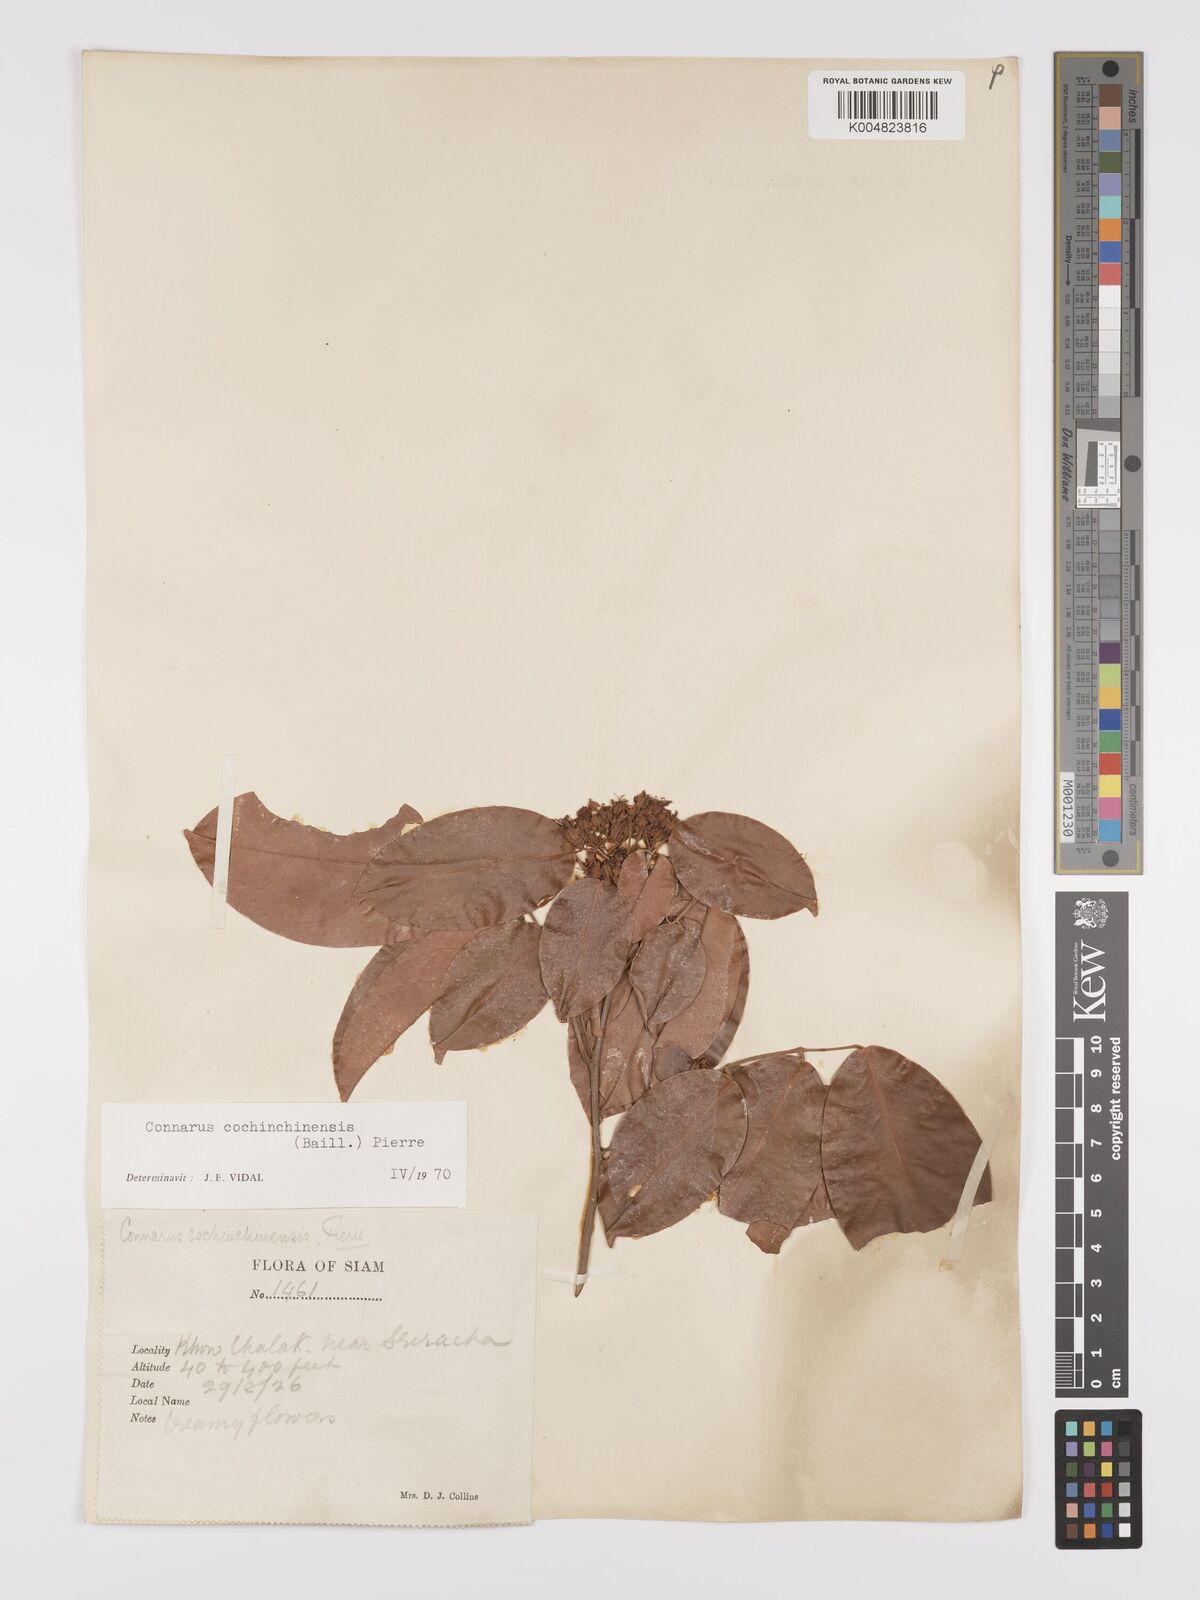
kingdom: Plantae
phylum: Tracheophyta
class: Magnoliopsida
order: Oxalidales
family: Connaraceae
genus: Connarus
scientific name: Connarus cochinchinensis
